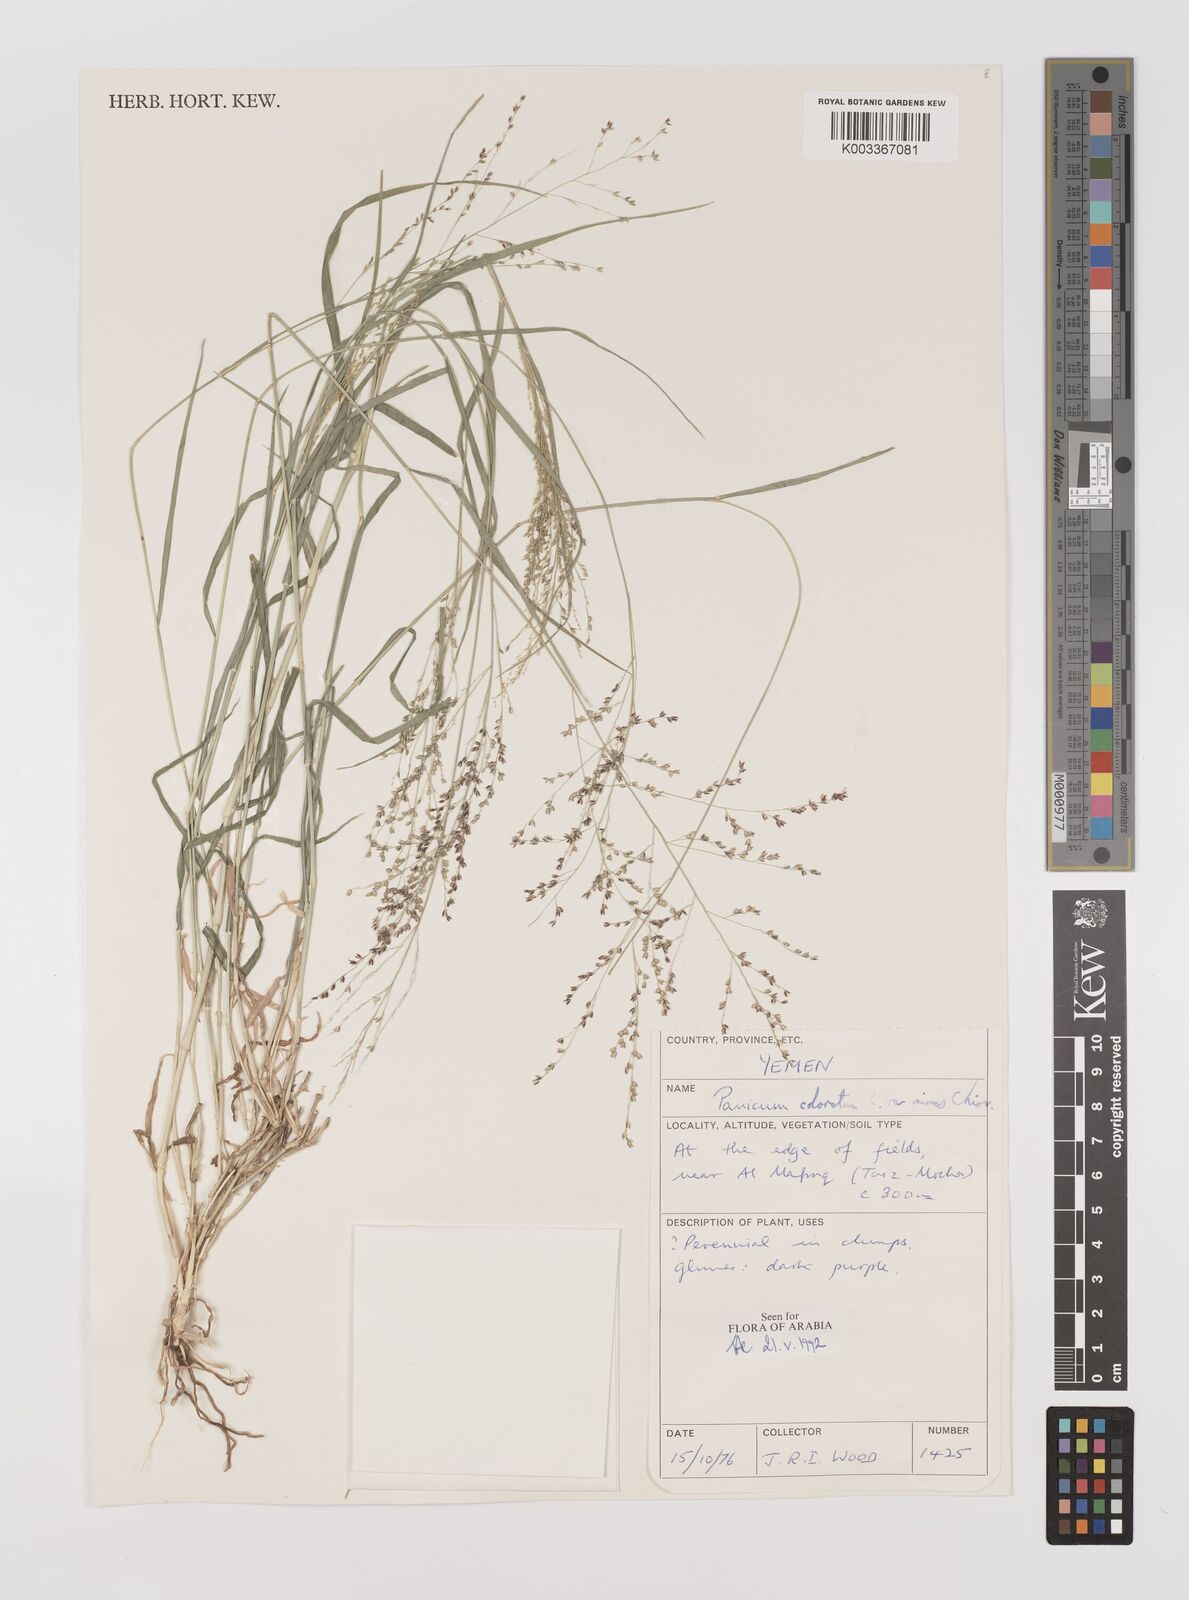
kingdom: Plantae
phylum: Tracheophyta
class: Liliopsida
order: Poales
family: Poaceae
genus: Echinochloa
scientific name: Echinochloa colonum
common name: Jungle rice
